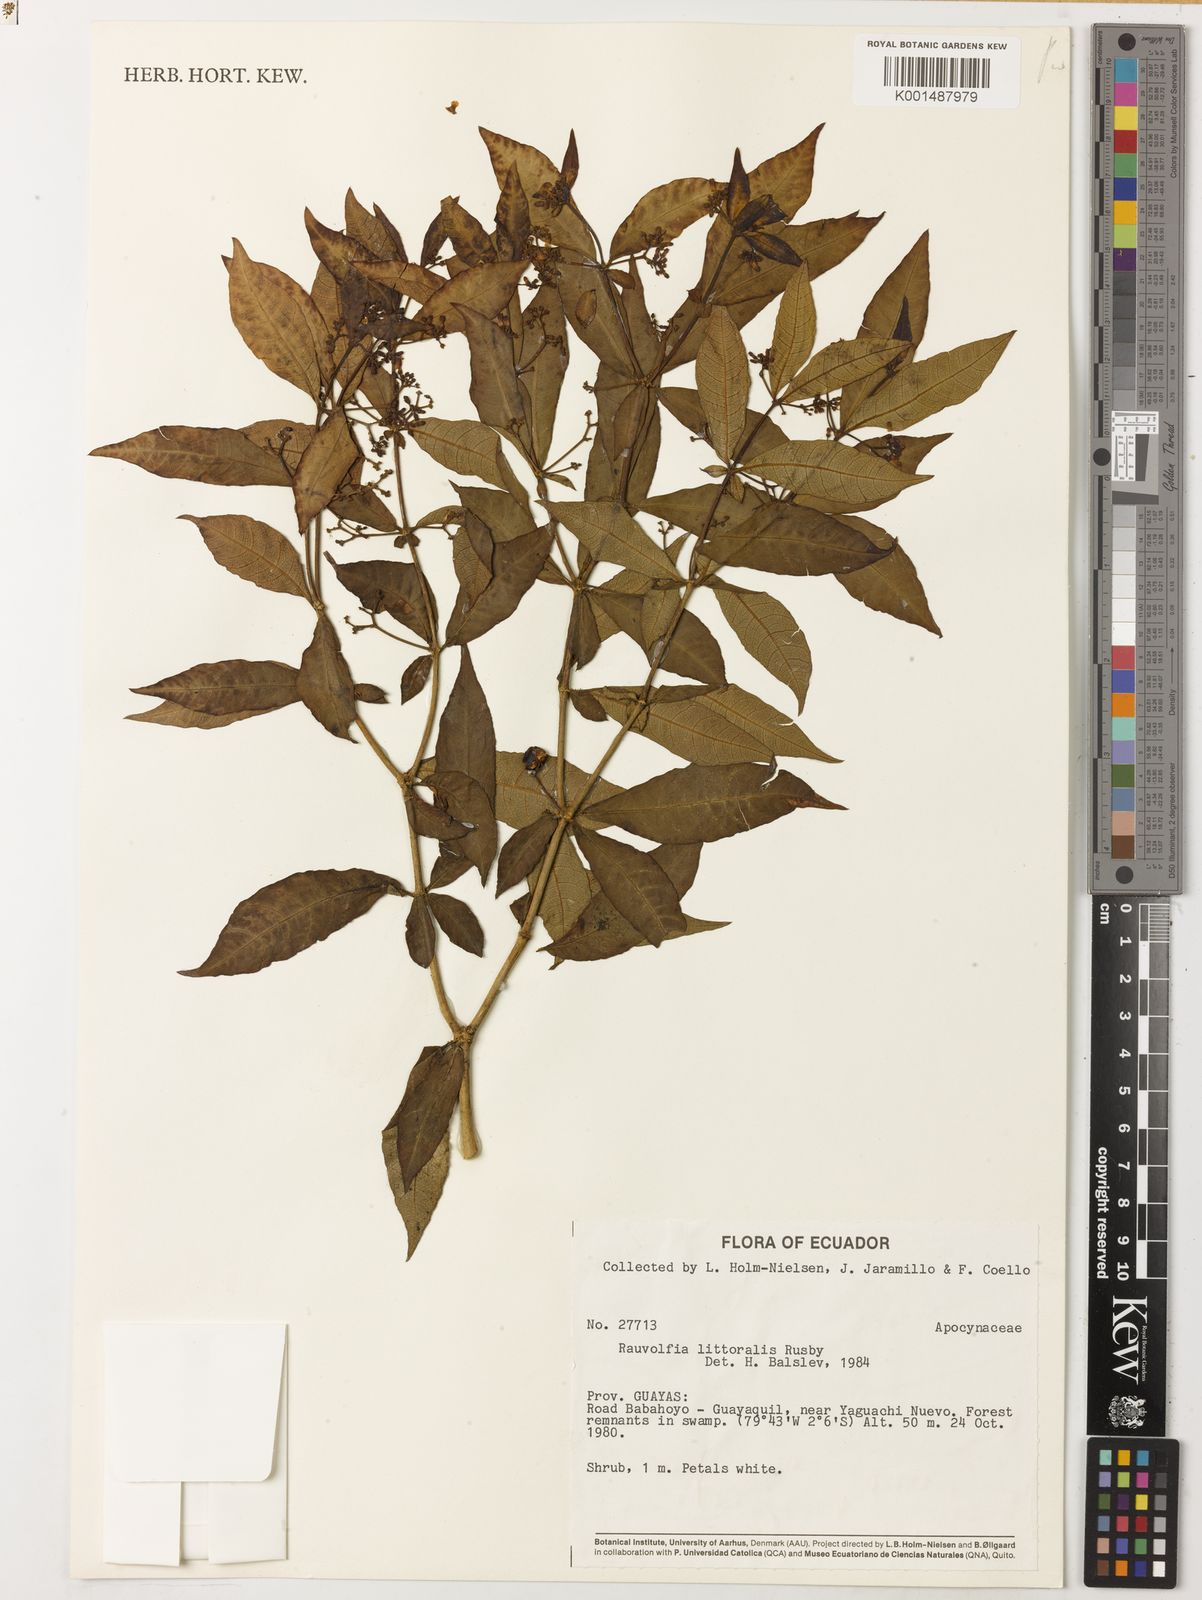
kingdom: Plantae
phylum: Tracheophyta
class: Magnoliopsida
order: Gentianales
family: Apocynaceae
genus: Rauvolfia
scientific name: Rauvolfia littoralis
